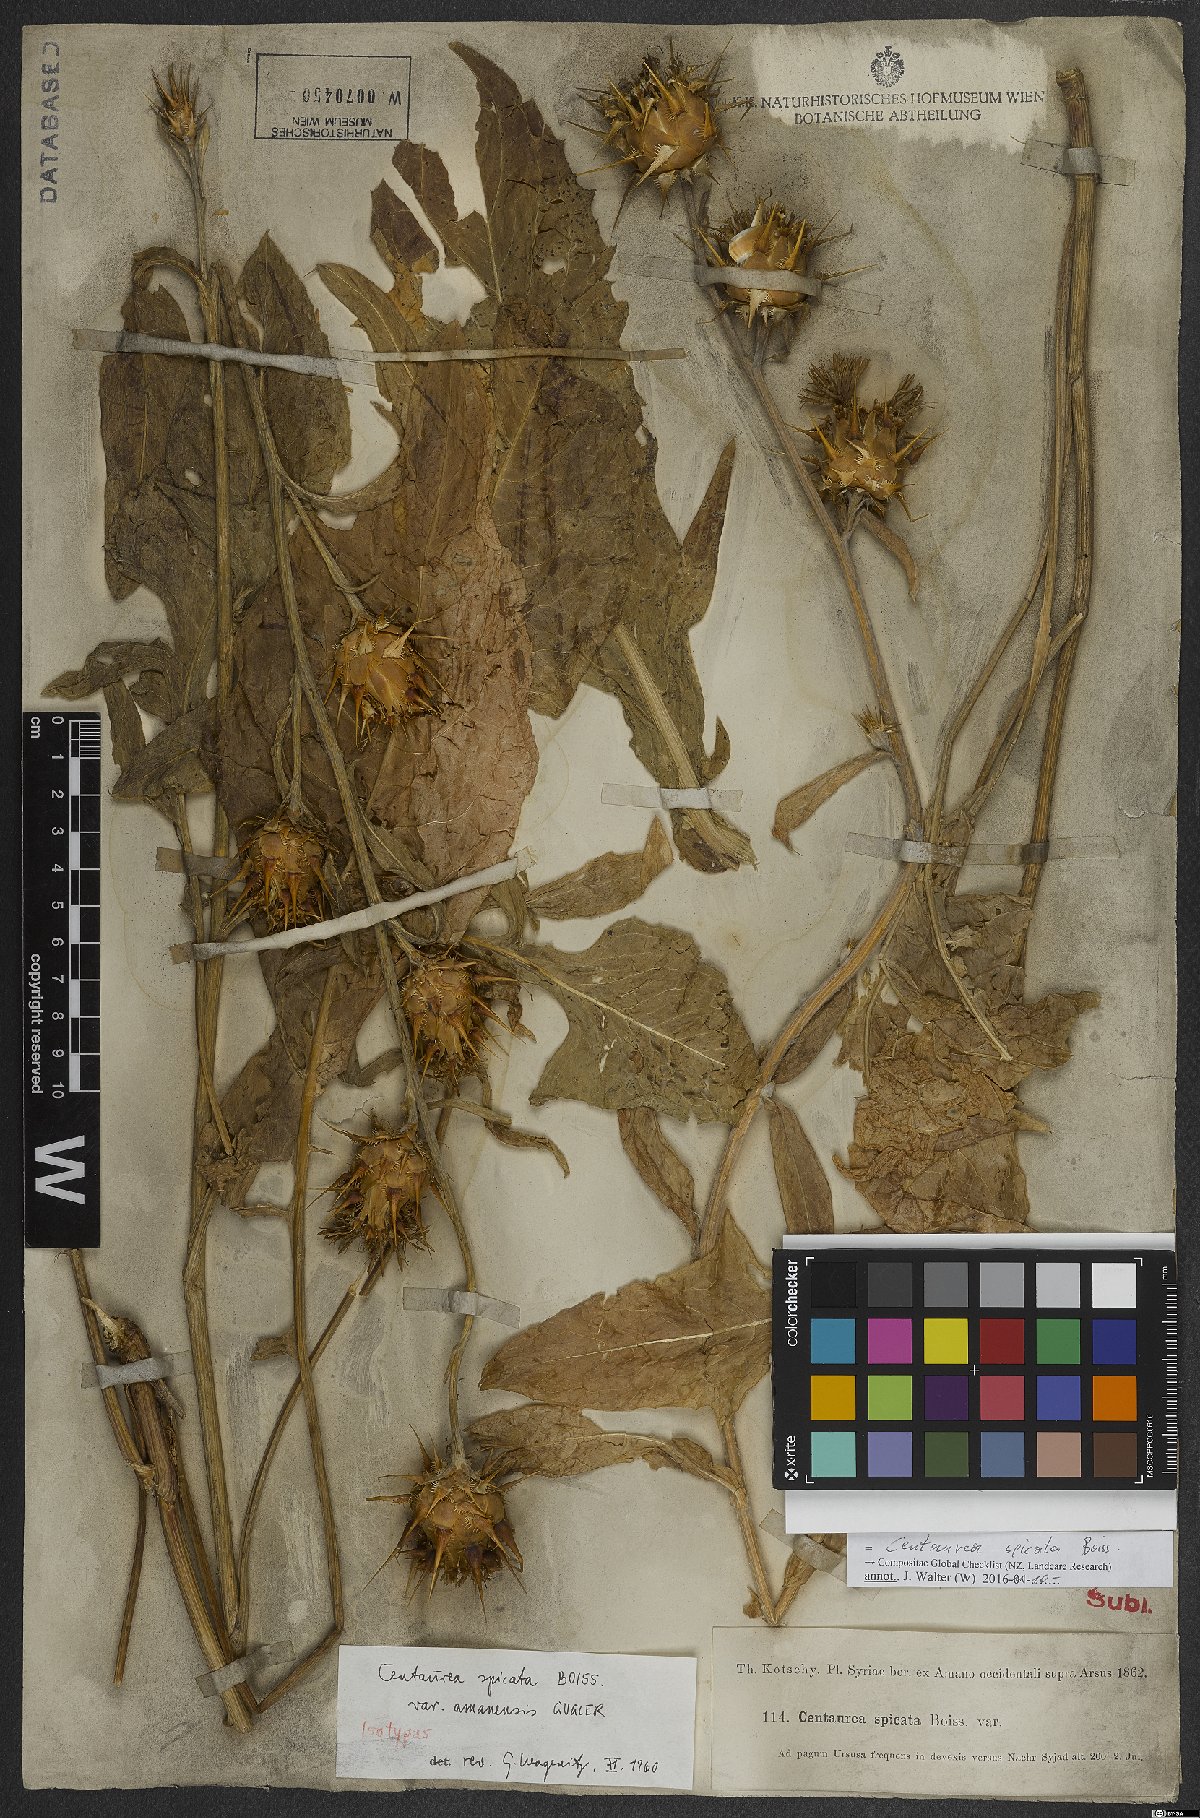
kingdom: Plantae
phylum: Tracheophyta
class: Magnoliopsida
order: Asterales
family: Asteraceae
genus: Centaurea
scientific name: Centaurea spicata
